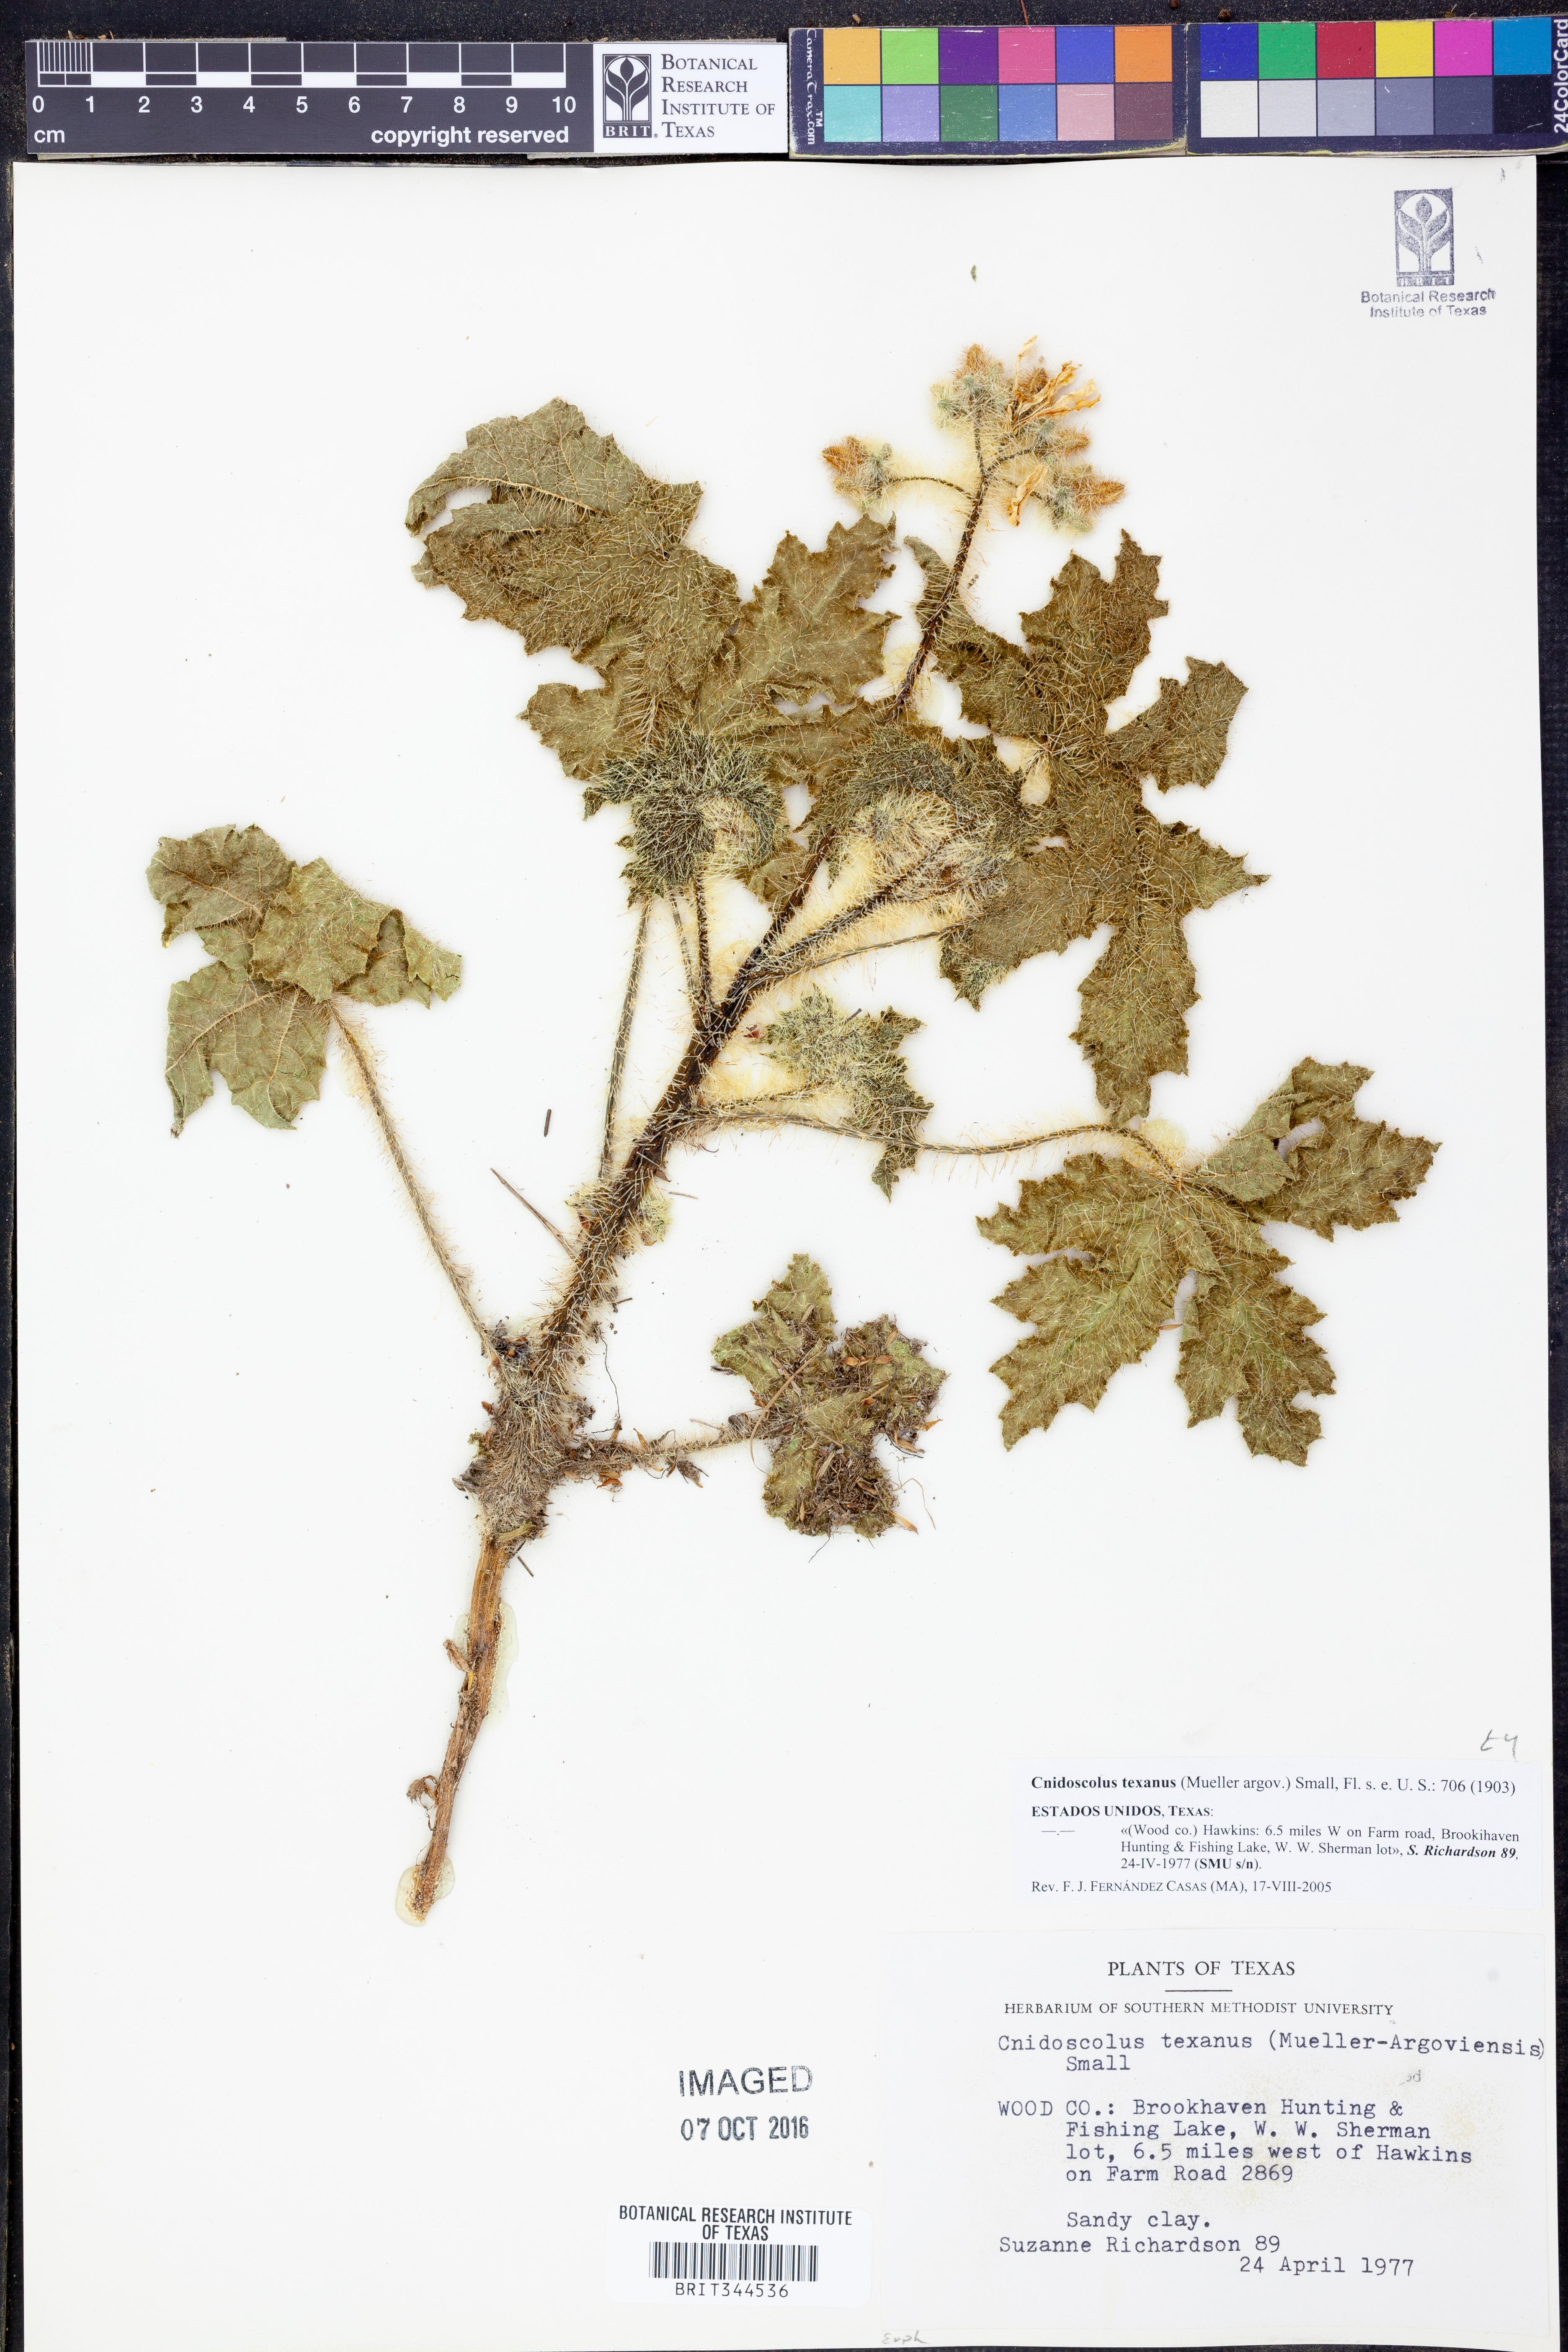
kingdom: Plantae
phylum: Tracheophyta
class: Magnoliopsida
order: Malpighiales
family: Euphorbiaceae
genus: Cnidoscolus
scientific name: Cnidoscolus texanus
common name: Texas bull-nettle
